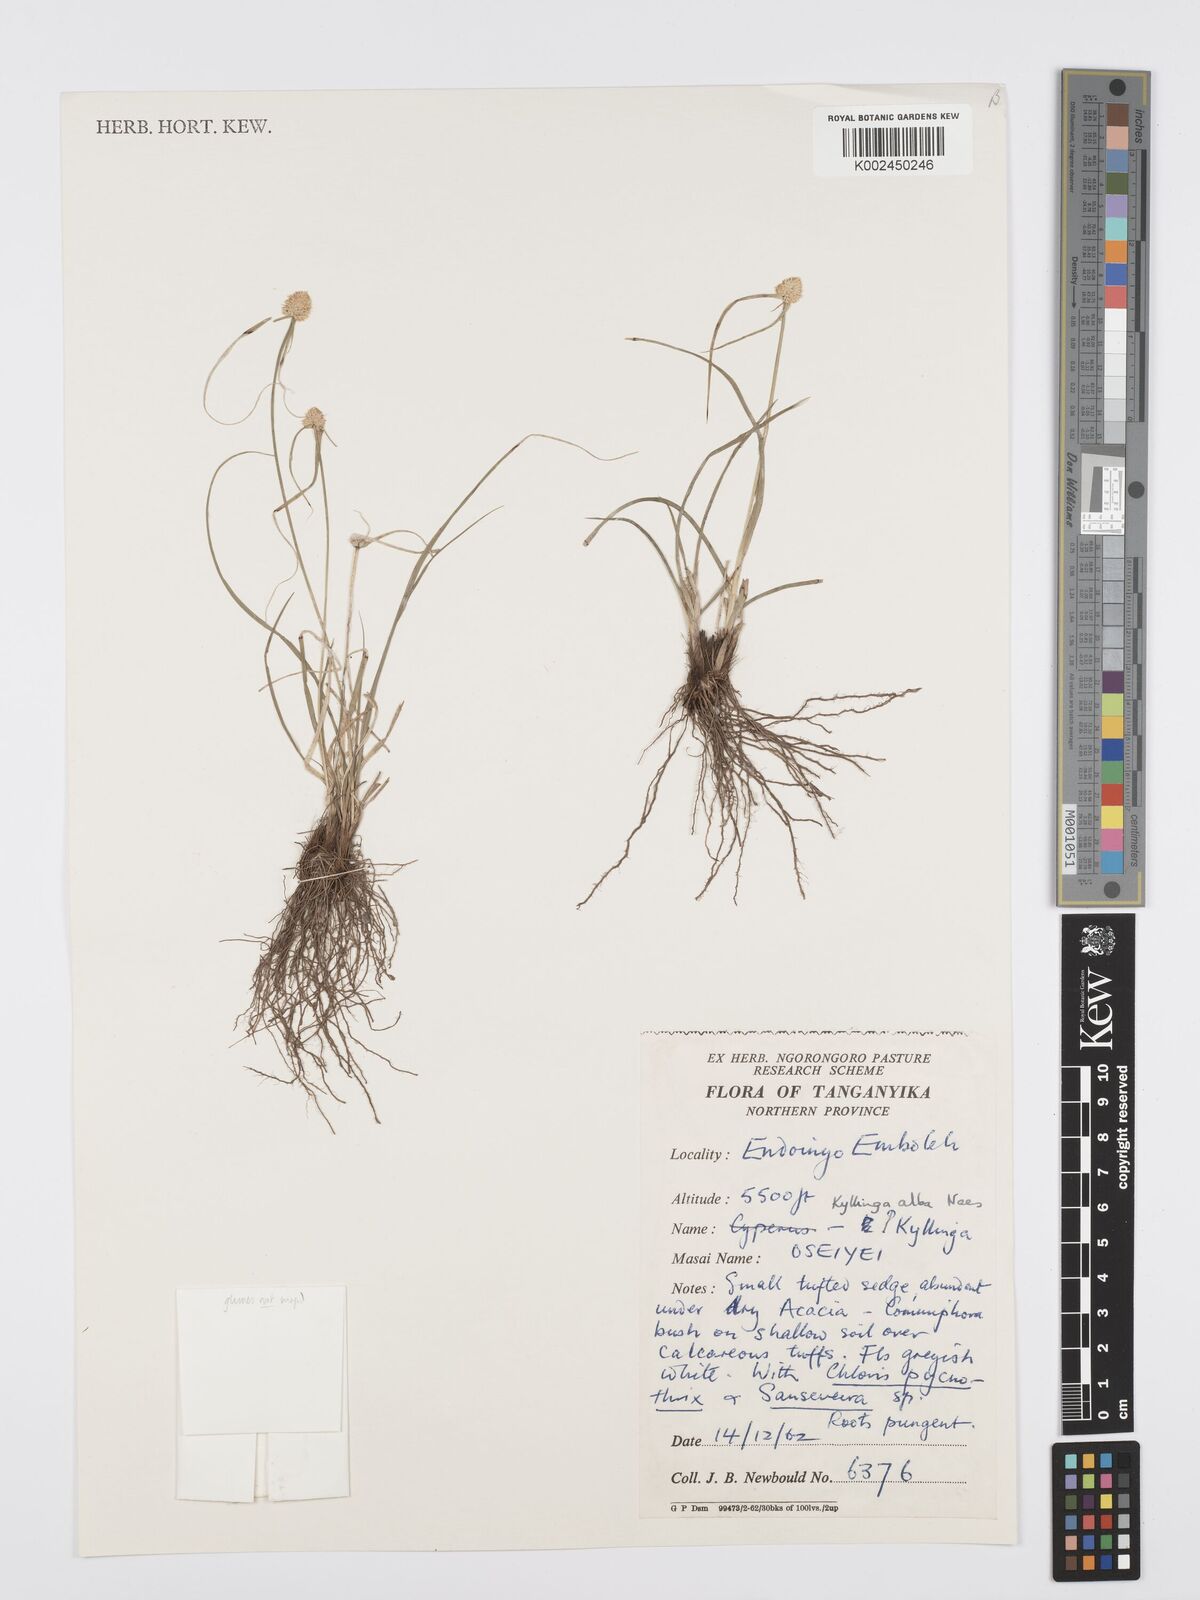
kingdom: Plantae
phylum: Tracheophyta
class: Liliopsida
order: Poales
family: Cyperaceae
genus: Cyperus
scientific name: Cyperus
